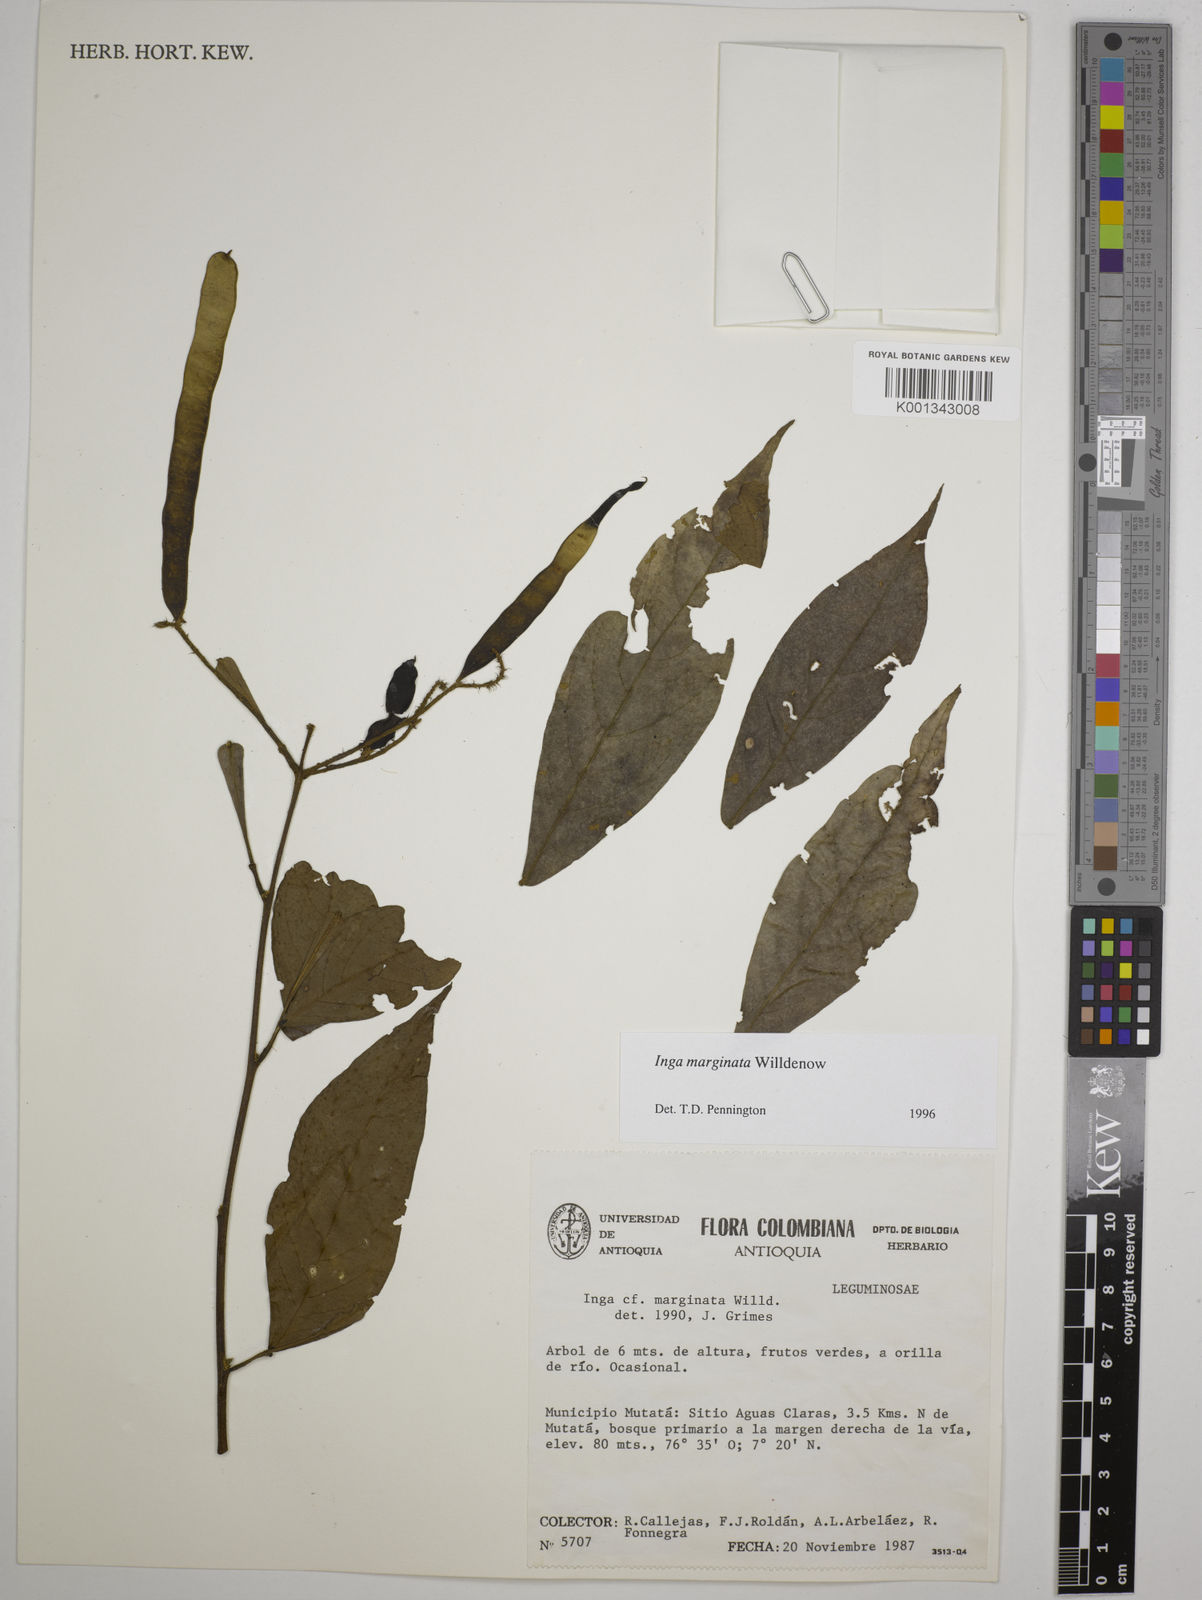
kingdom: Plantae
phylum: Tracheophyta
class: Magnoliopsida
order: Fabales
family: Fabaceae
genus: Inga
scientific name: Inga marginata
